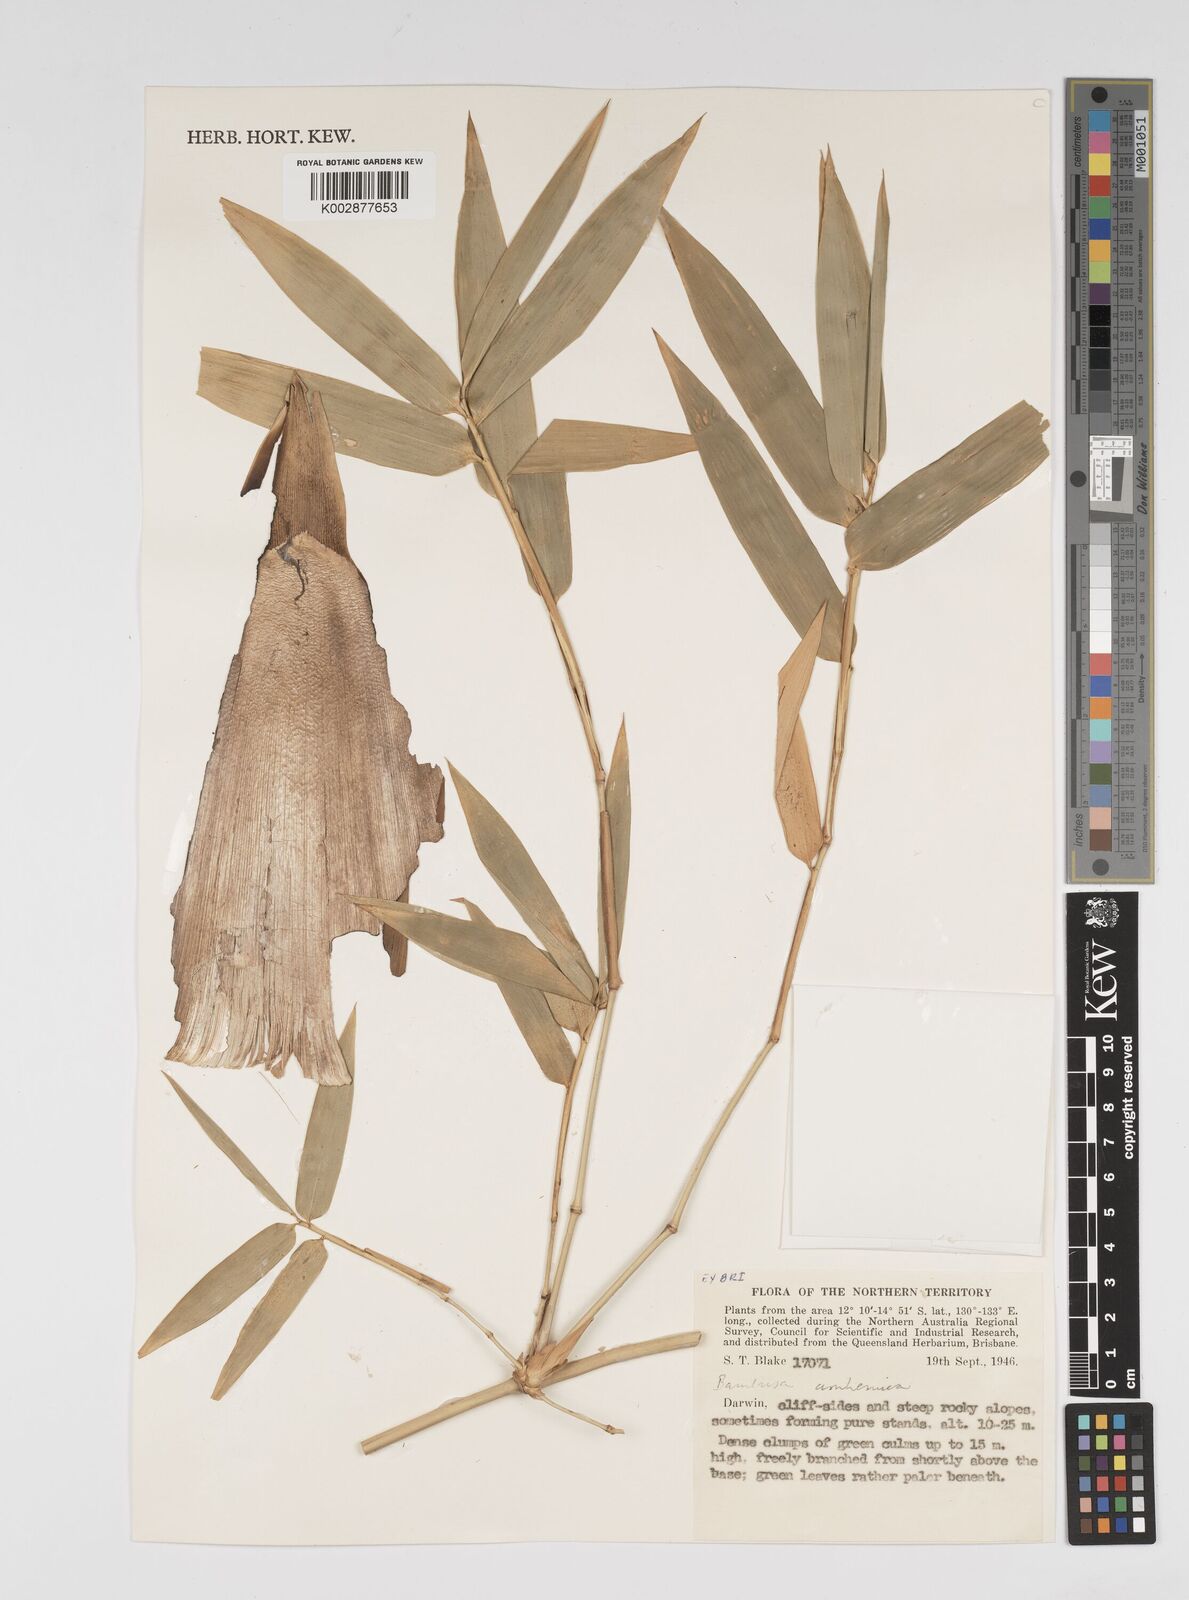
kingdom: Plantae
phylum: Tracheophyta
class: Liliopsida
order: Poales
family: Poaceae
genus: Bambusa
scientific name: Bambusa arnhemica
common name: Top-end bamboo
